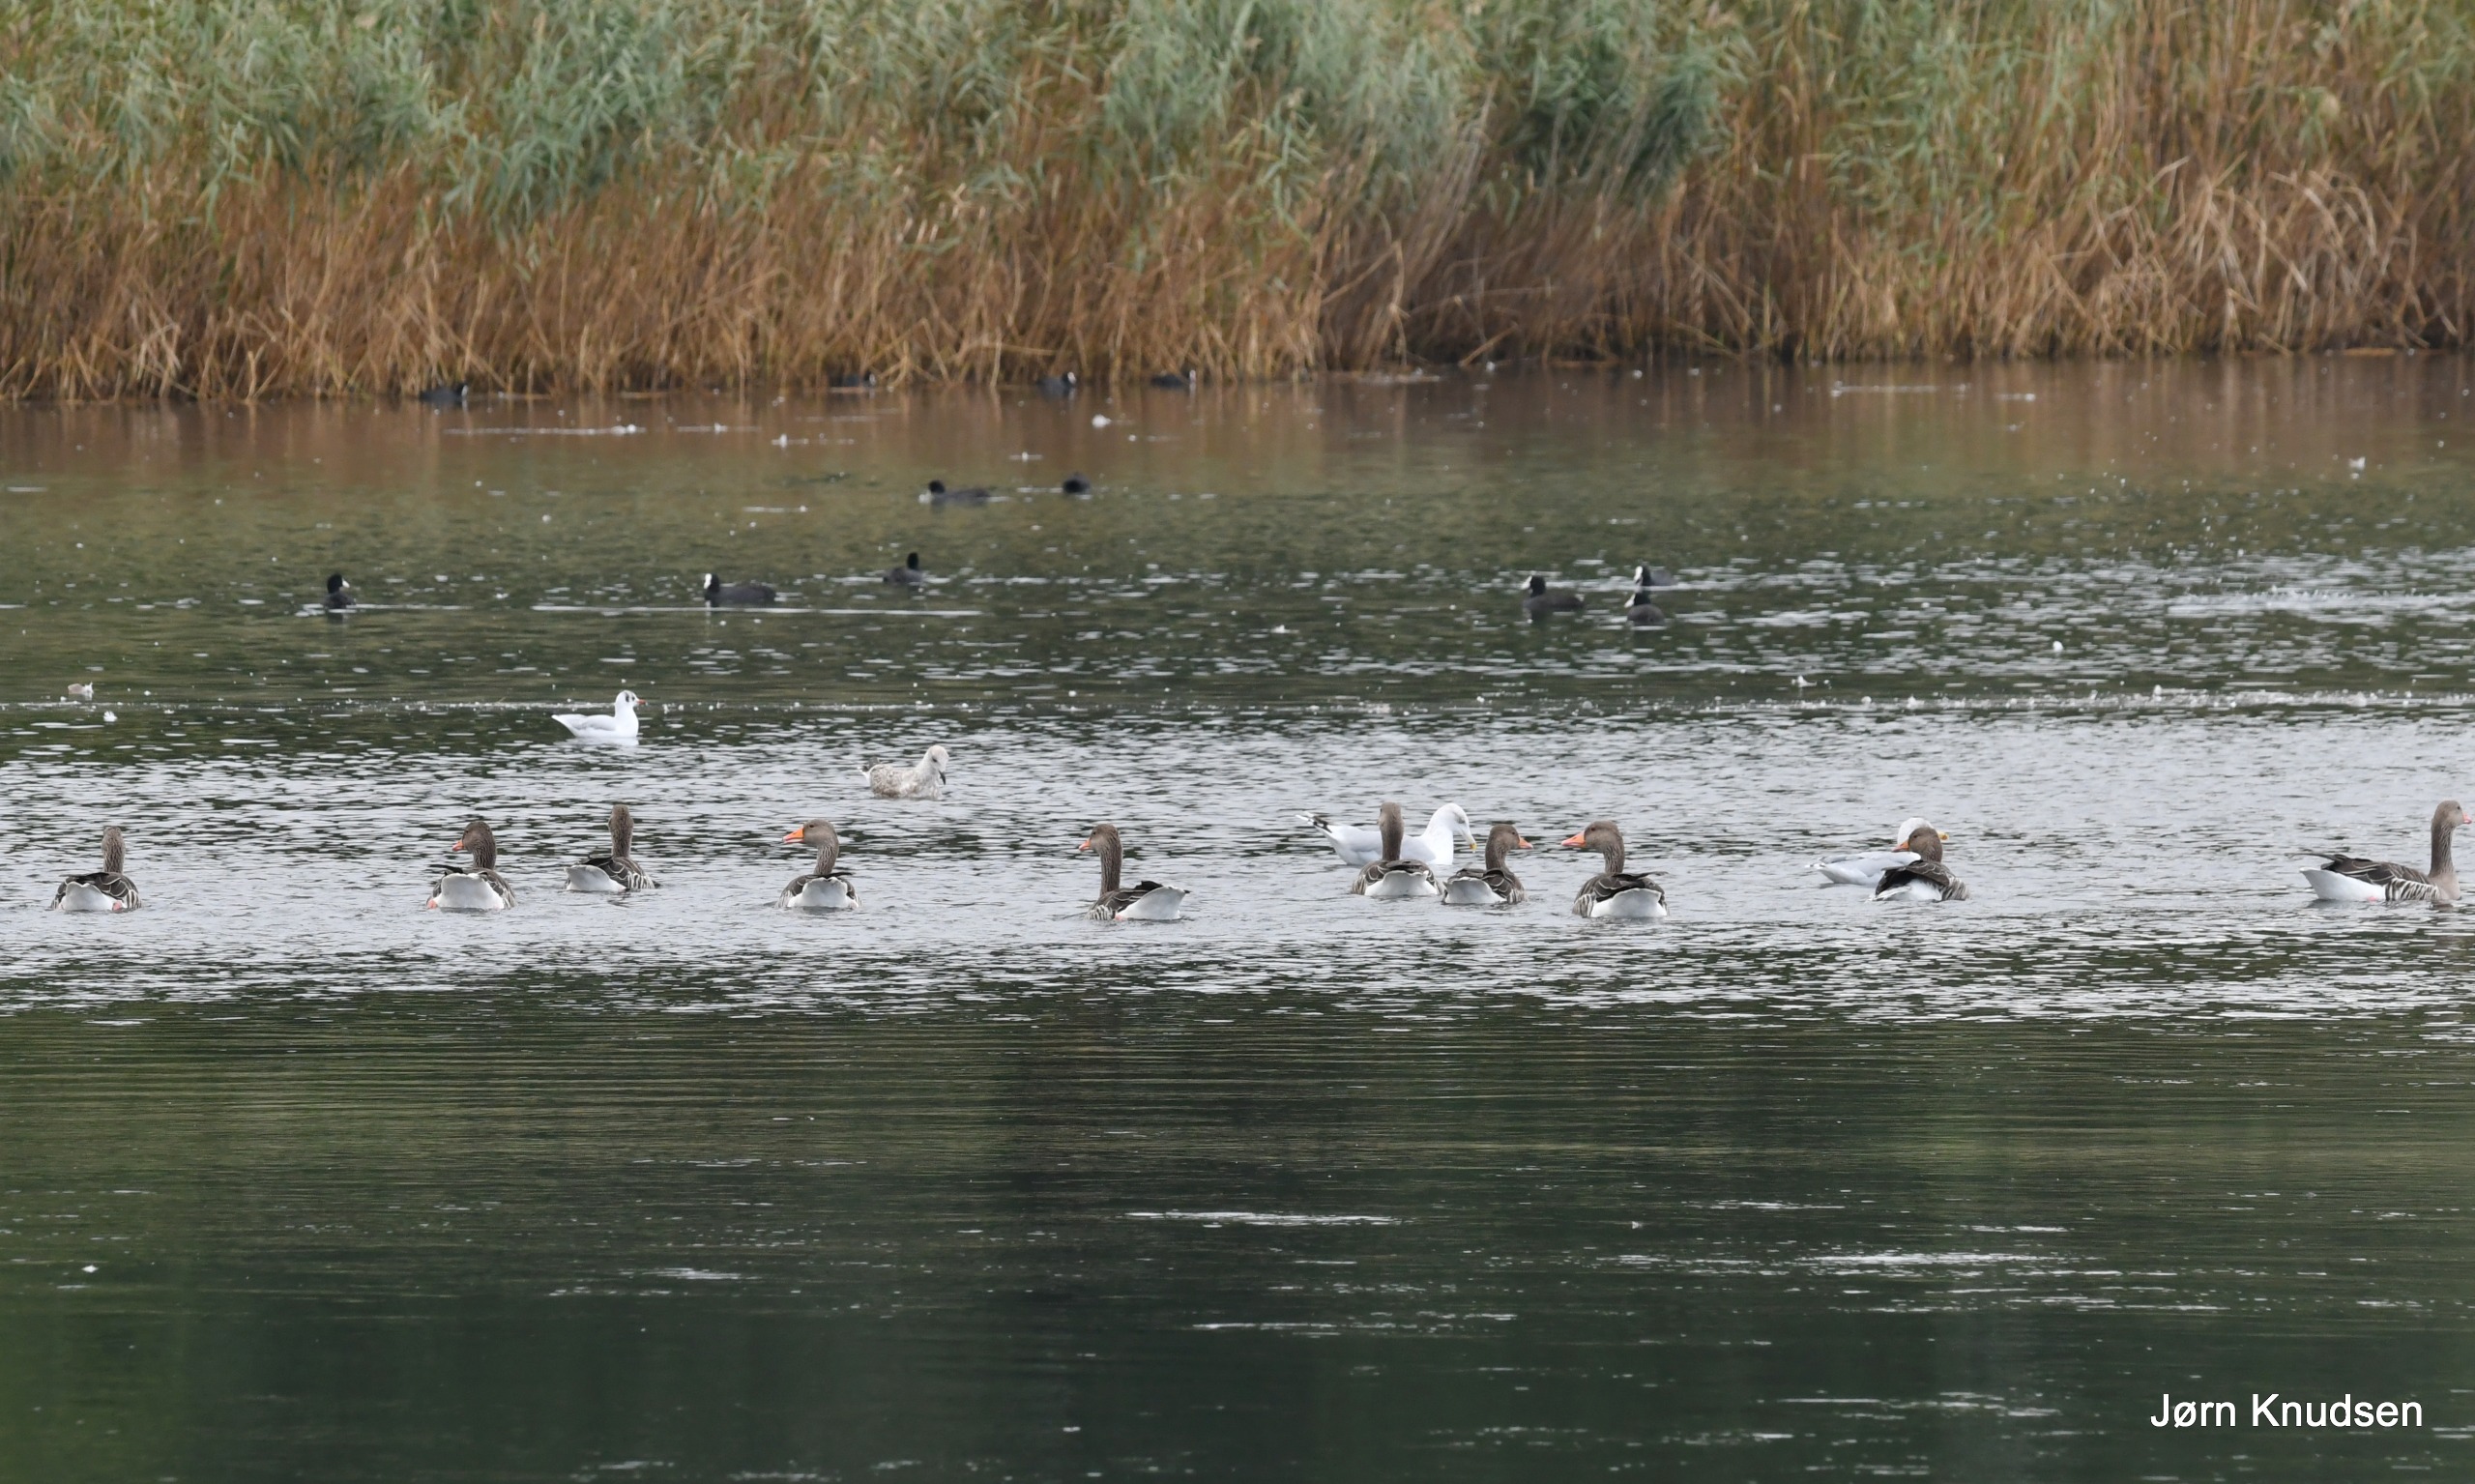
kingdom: Animalia
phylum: Chordata
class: Aves
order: Anseriformes
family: Anatidae
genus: Anser
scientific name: Anser anser
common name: Grågås
